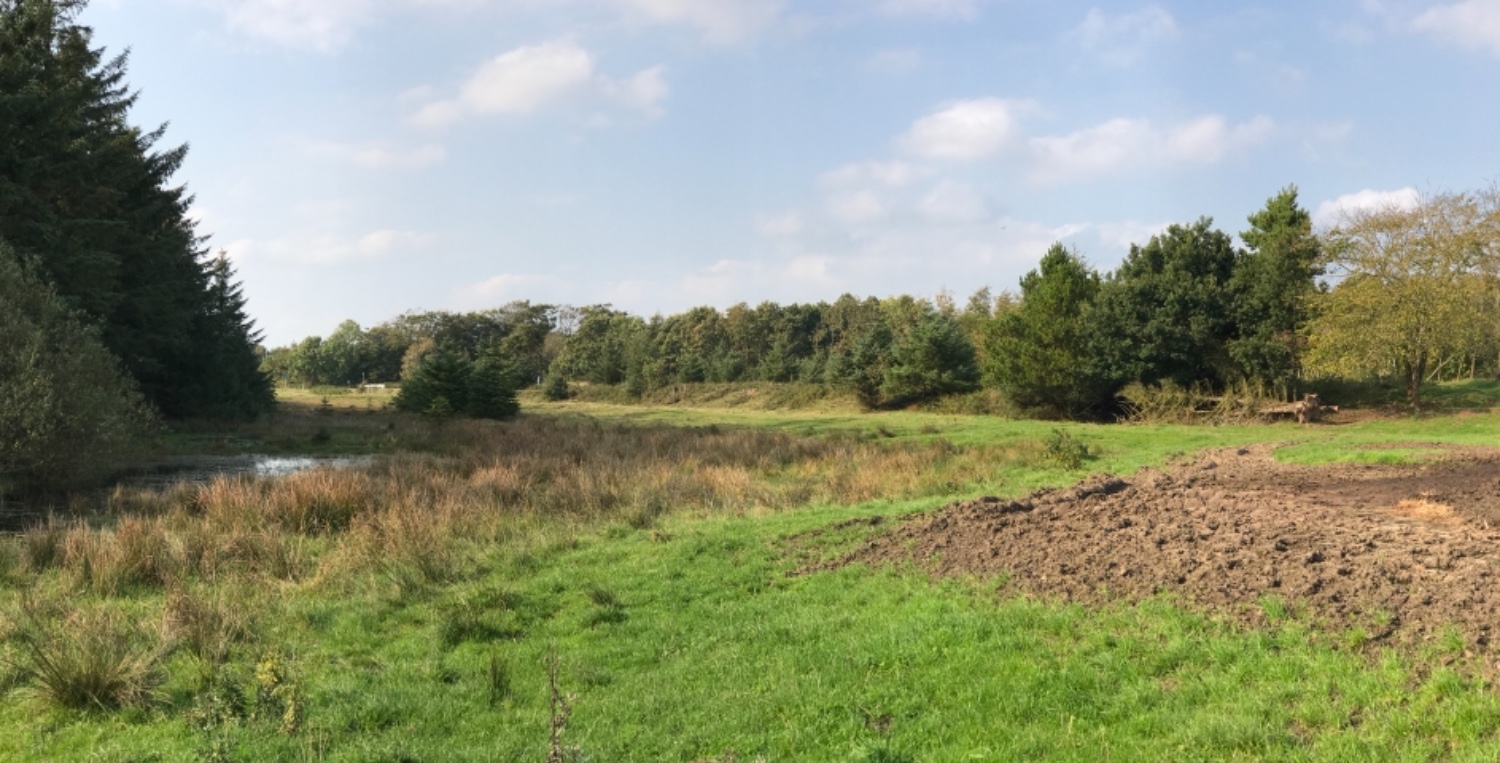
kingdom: Fungi
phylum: Basidiomycota
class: Agaricomycetes
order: Russulales
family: Russulaceae
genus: Lactarius
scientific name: Lactarius rufus
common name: rødbrun mælkehat
